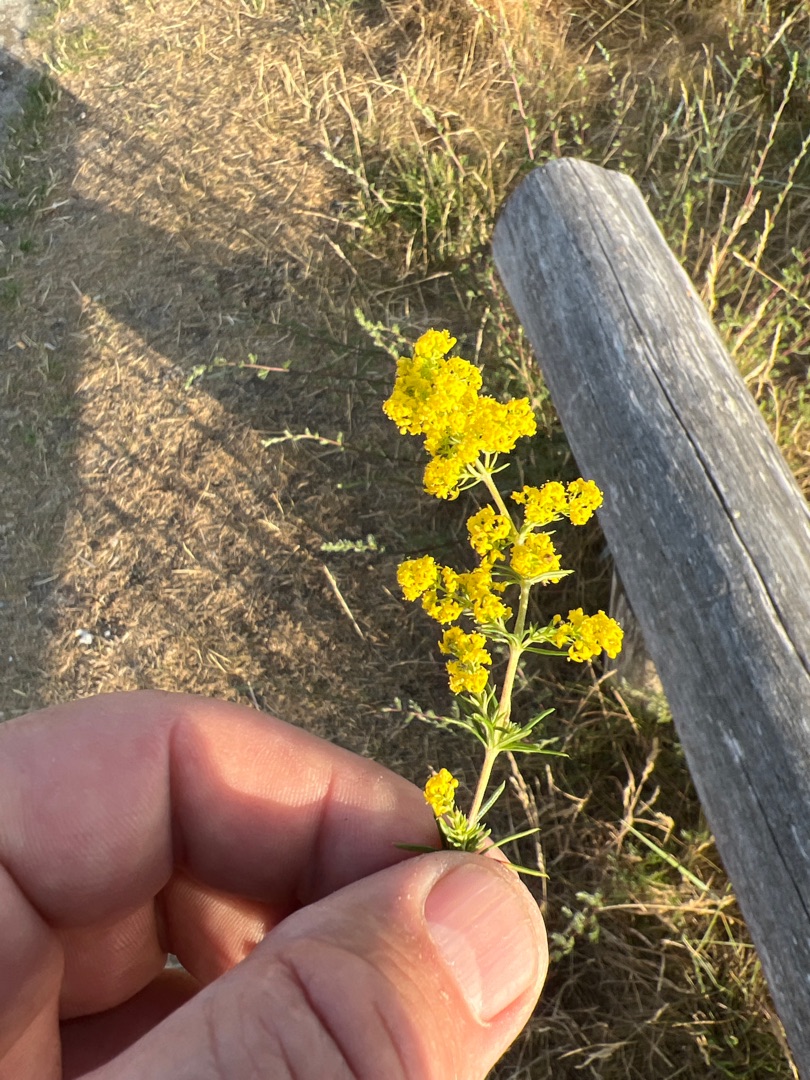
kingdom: Plantae
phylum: Tracheophyta
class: Magnoliopsida
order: Gentianales
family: Rubiaceae
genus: Galium
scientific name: Galium verum
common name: Gul snerre
